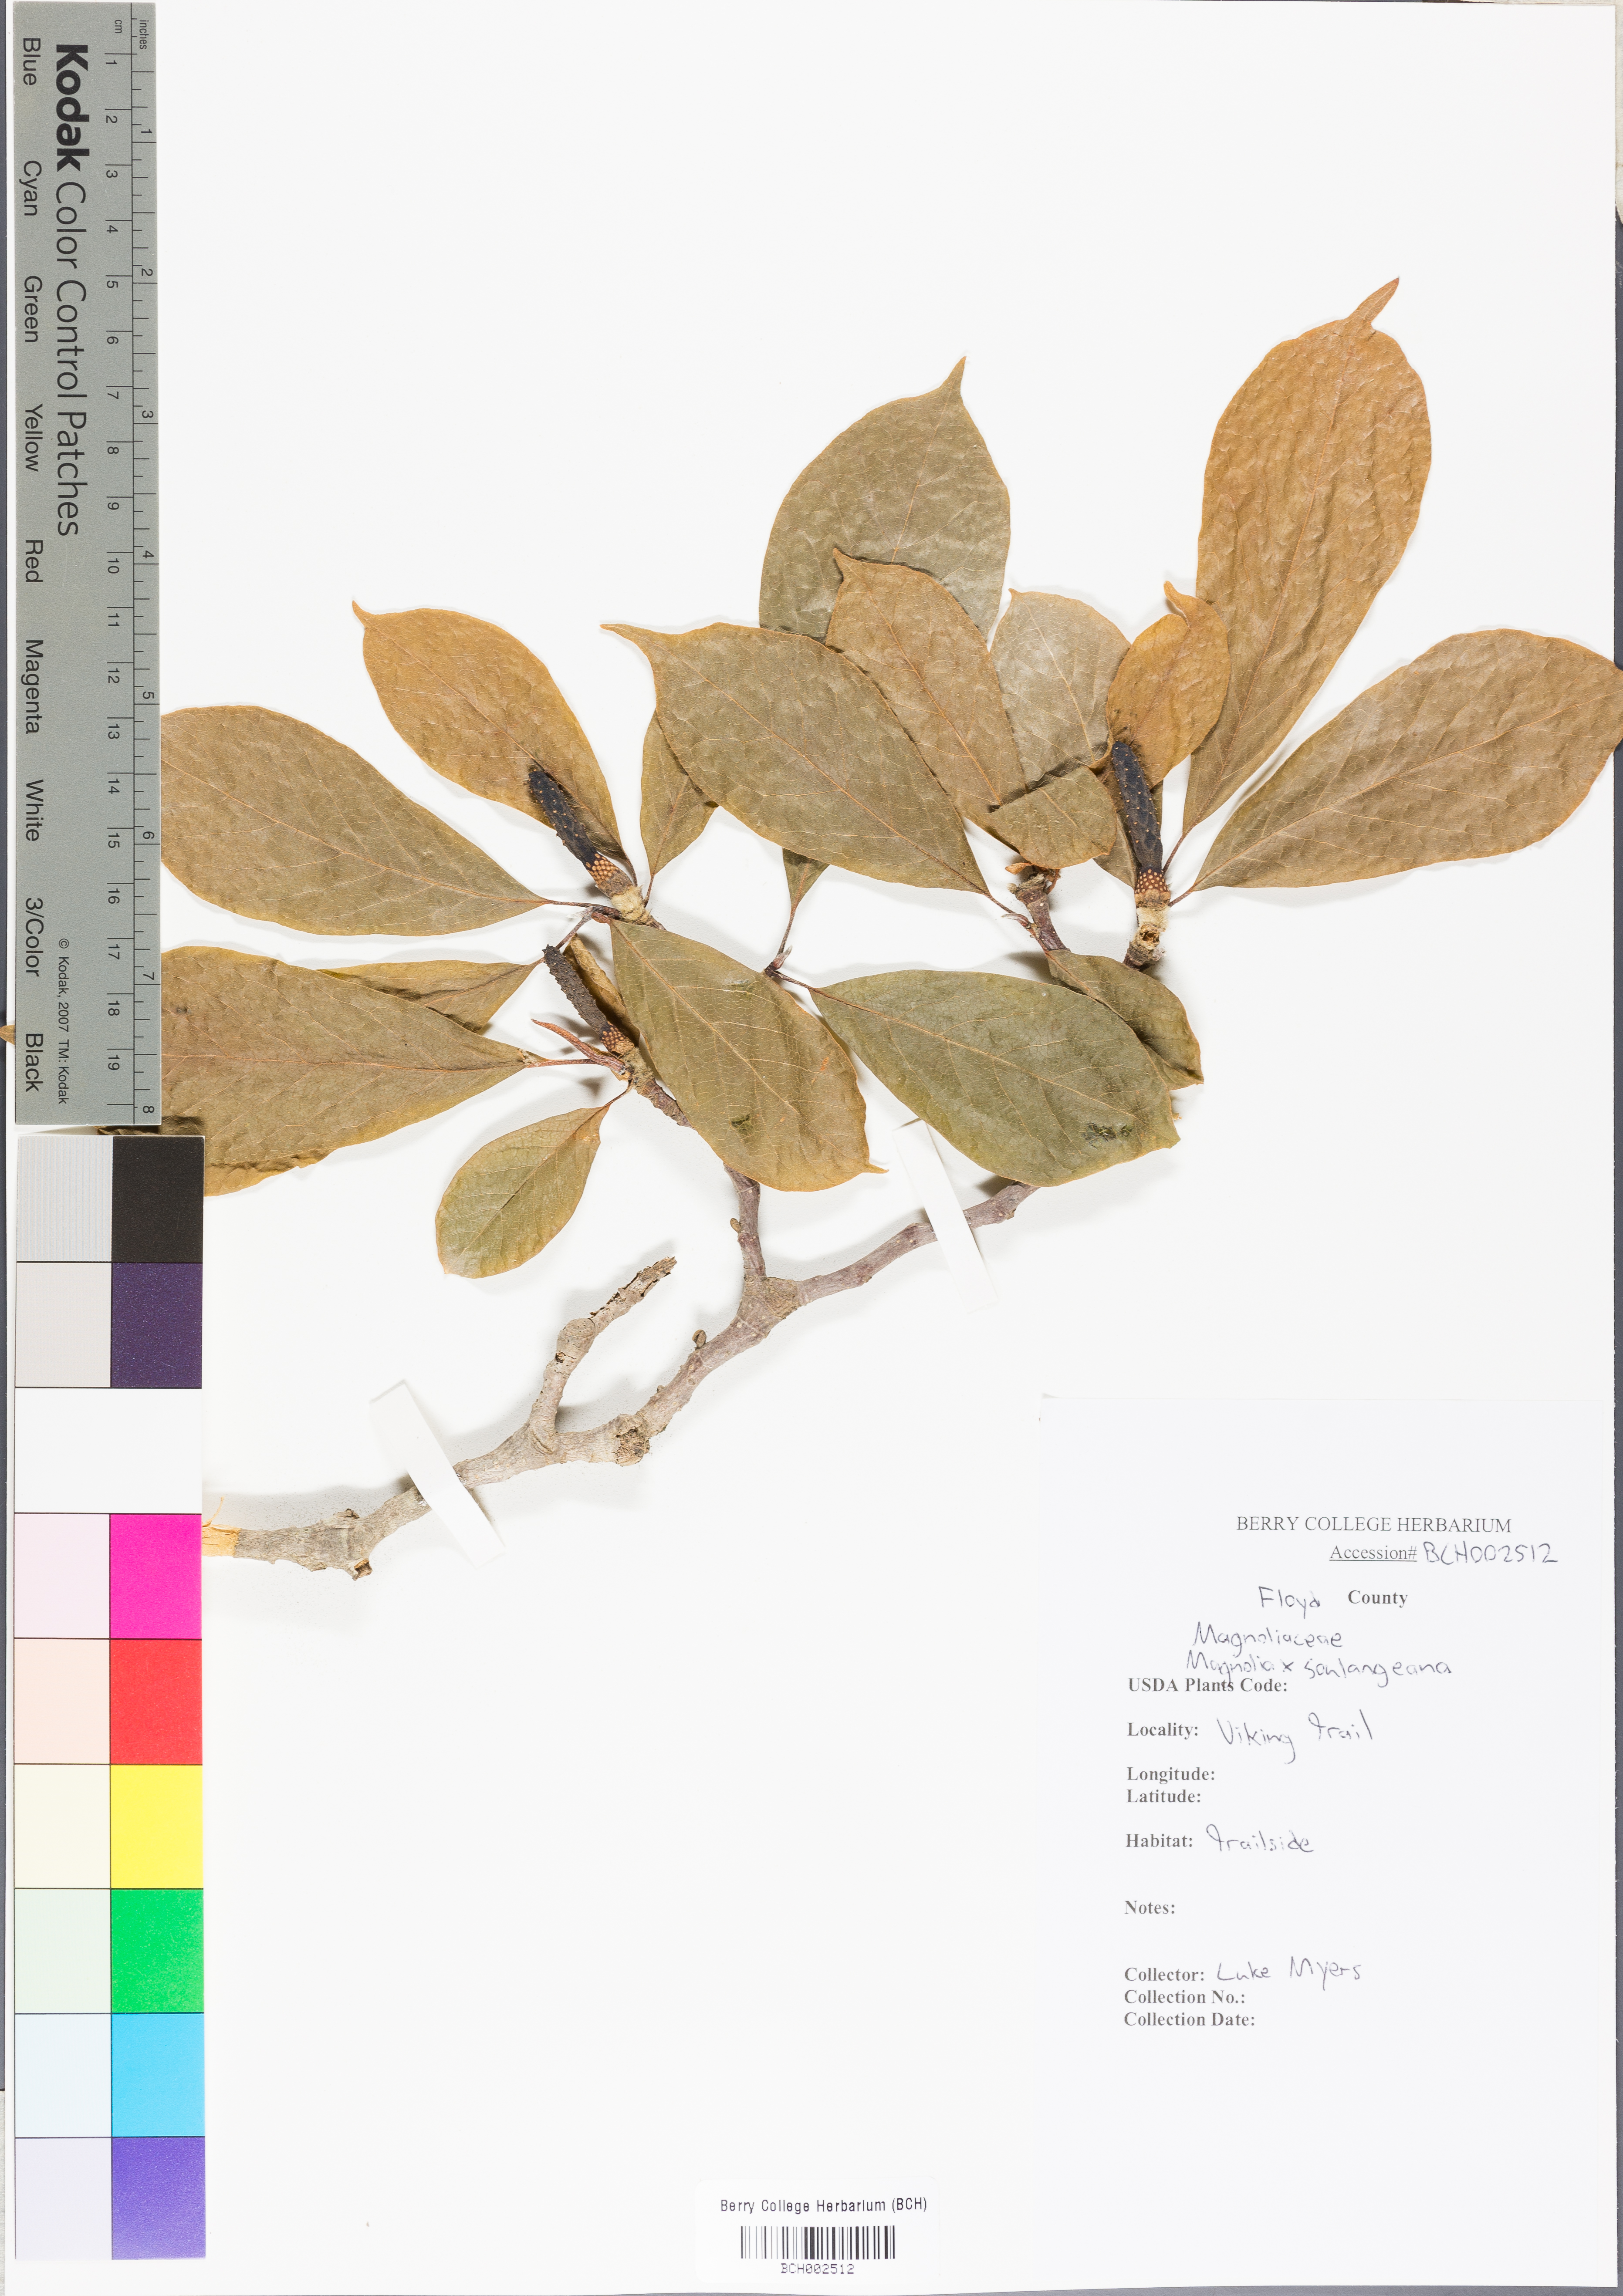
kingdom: Plantae
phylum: Tracheophyta
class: Magnoliopsida
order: Magnoliales
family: Magnoliaceae
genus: Magnolia
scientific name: Magnolia soulangeana
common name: Chinese magnolia
